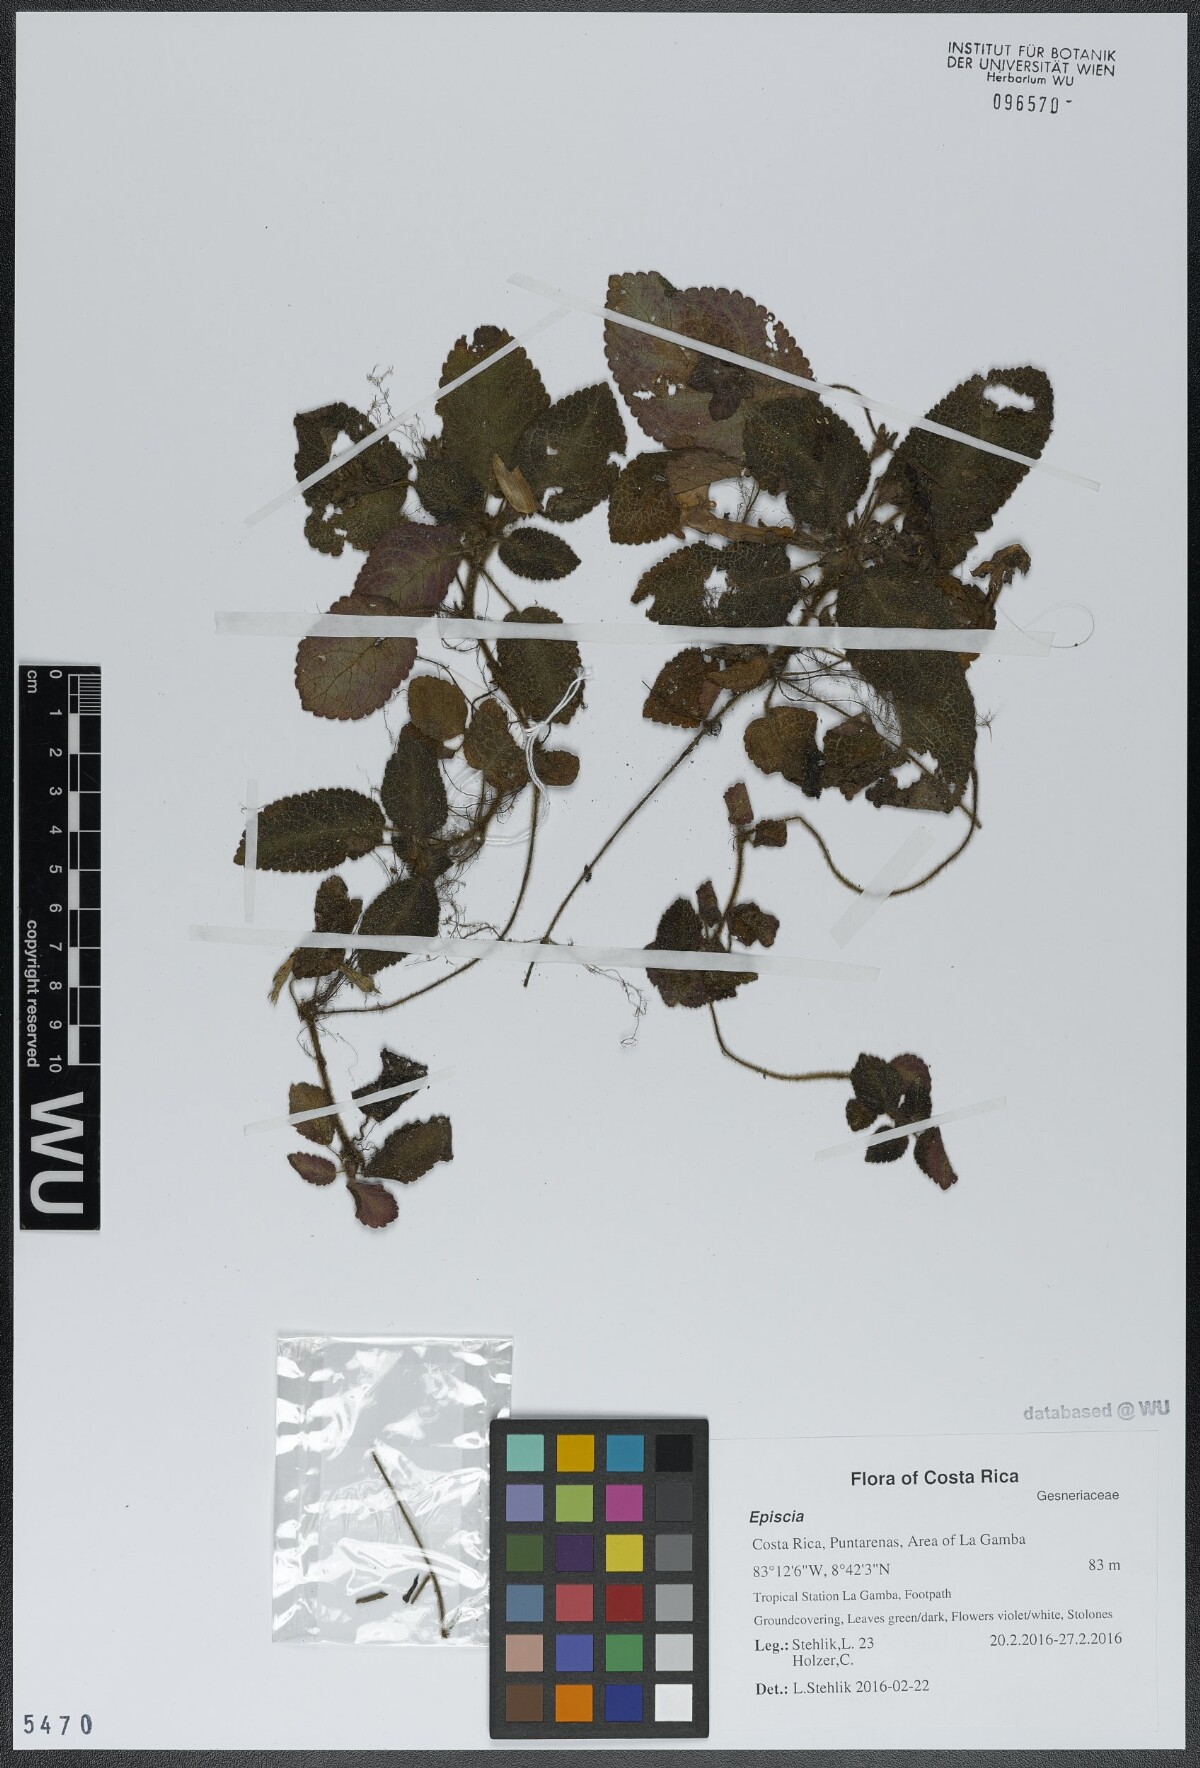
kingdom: Plantae
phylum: Tracheophyta
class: Magnoliopsida
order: Lamiales
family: Gesneriaceae
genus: Episcia
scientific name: Episcia
